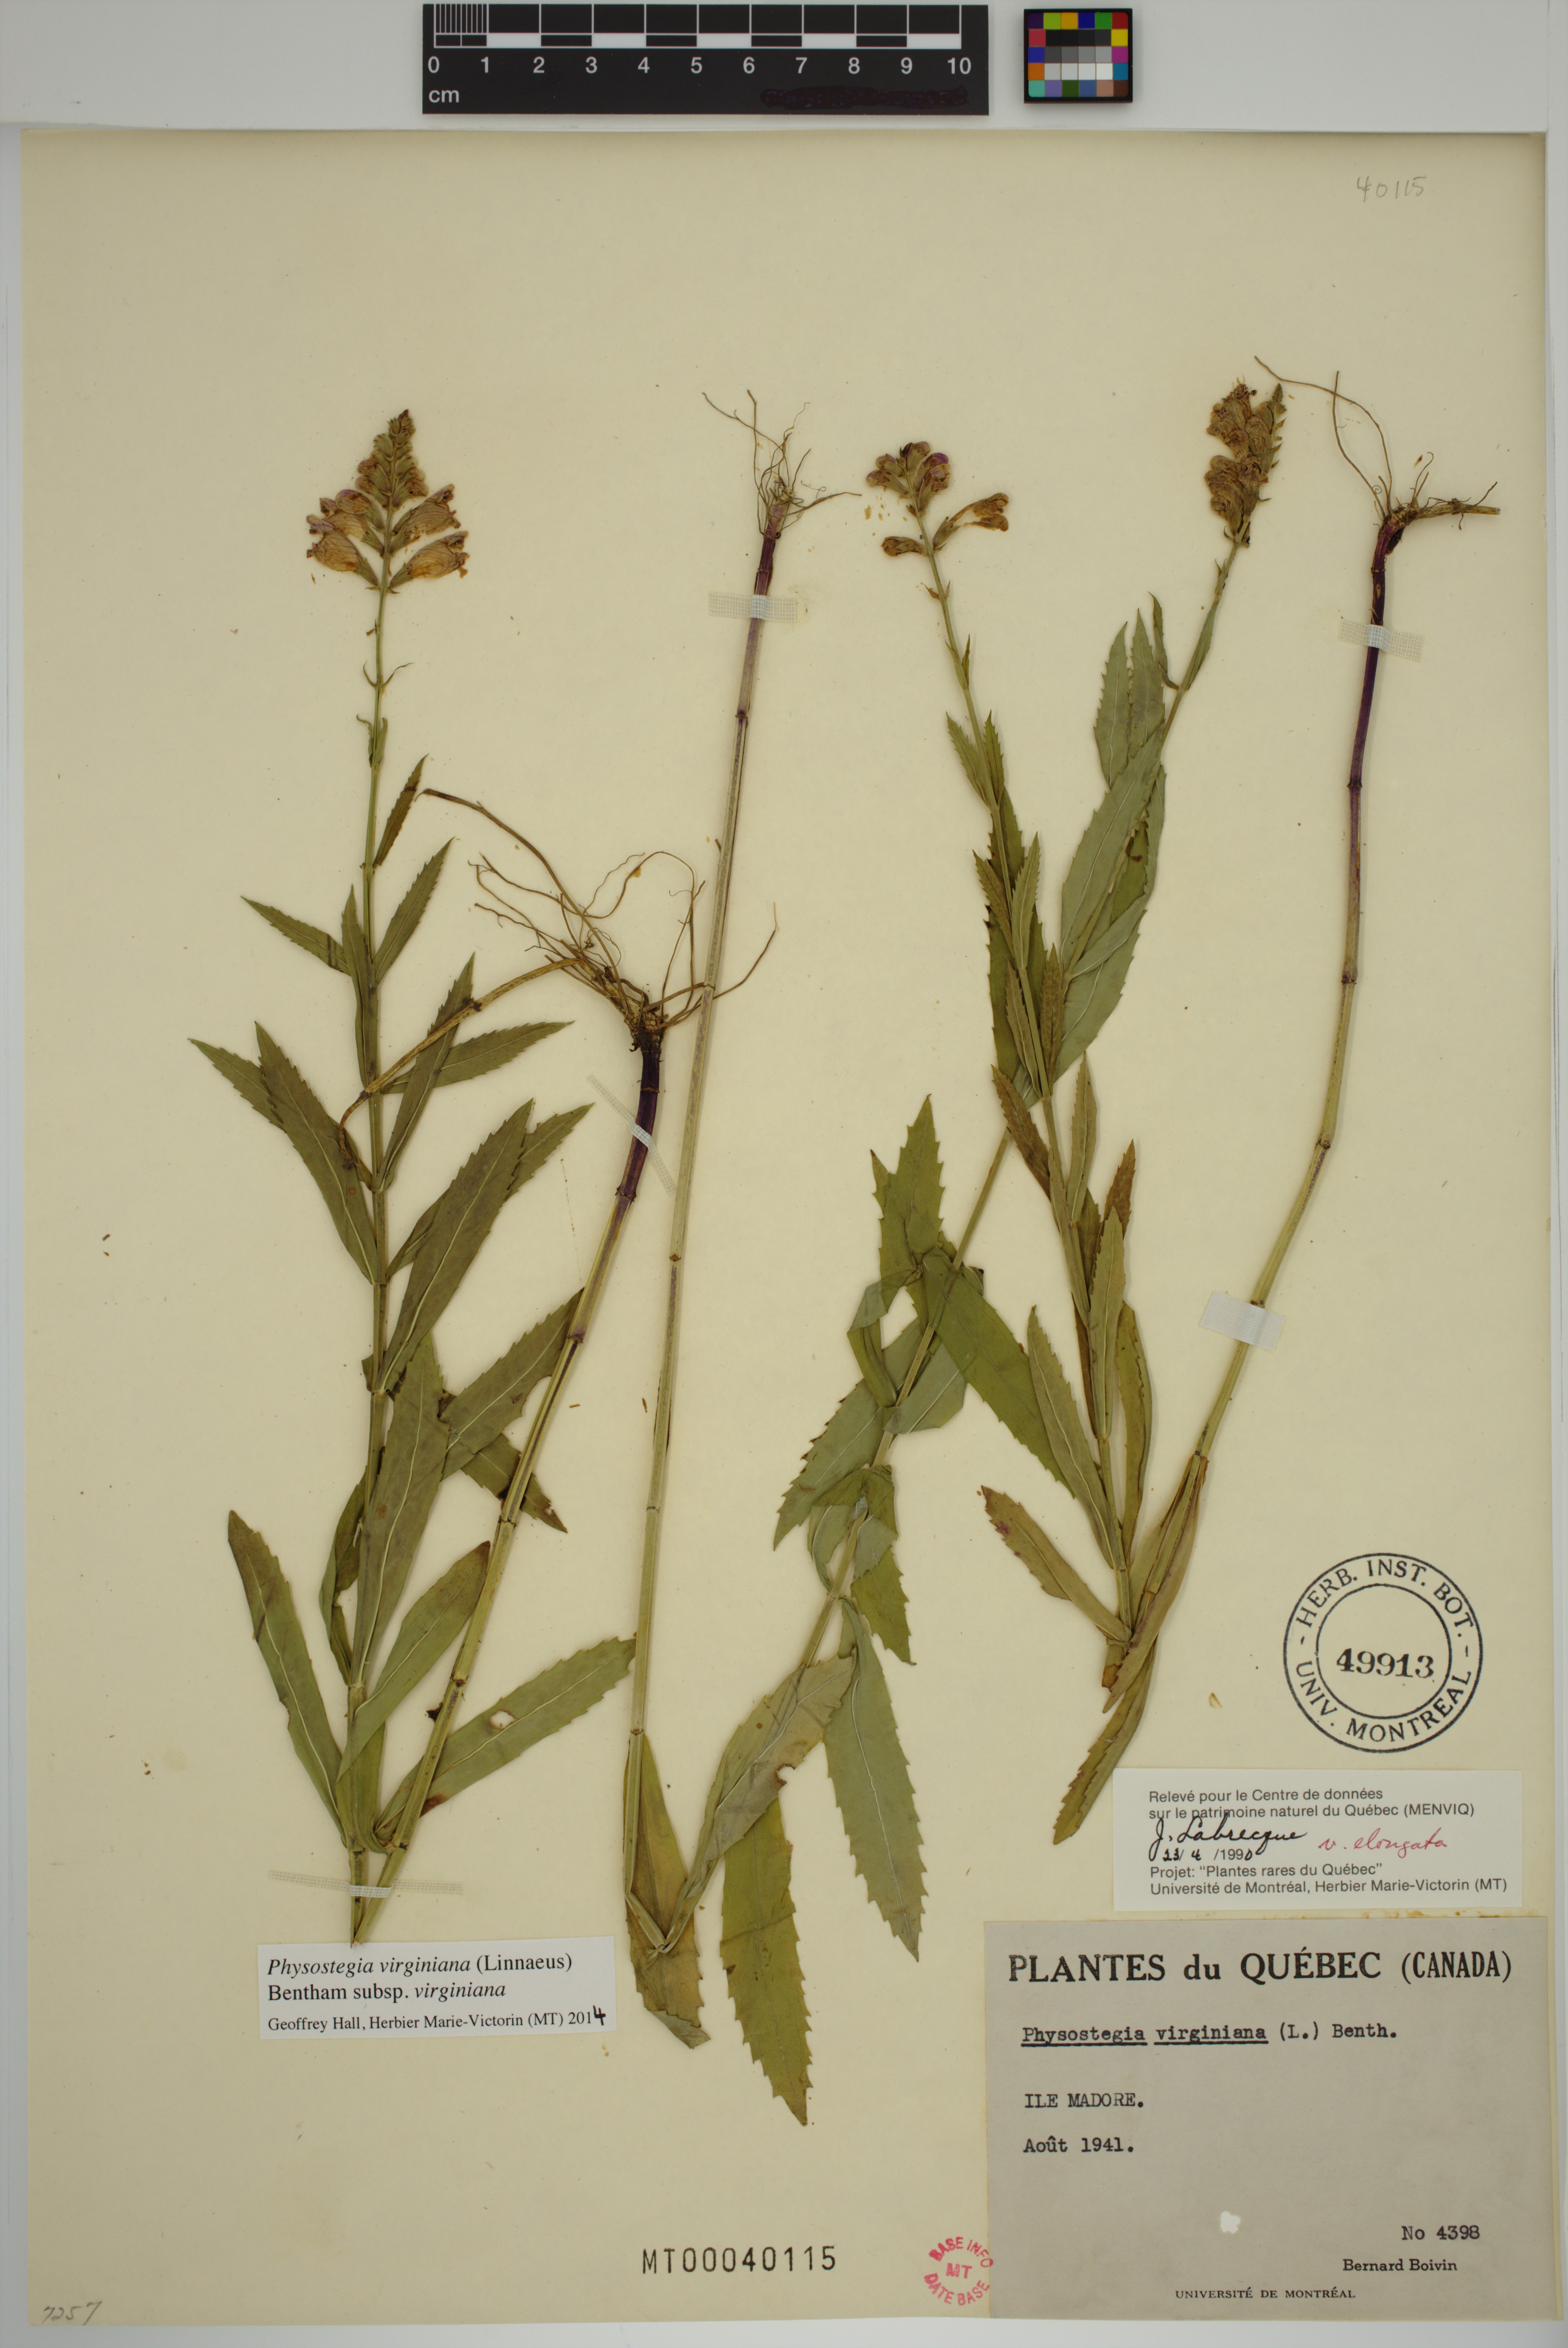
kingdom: Plantae
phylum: Tracheophyta
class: Magnoliopsida
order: Lamiales
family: Lamiaceae
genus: Physostegia
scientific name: Physostegia virginiana
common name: Obedient-plant
